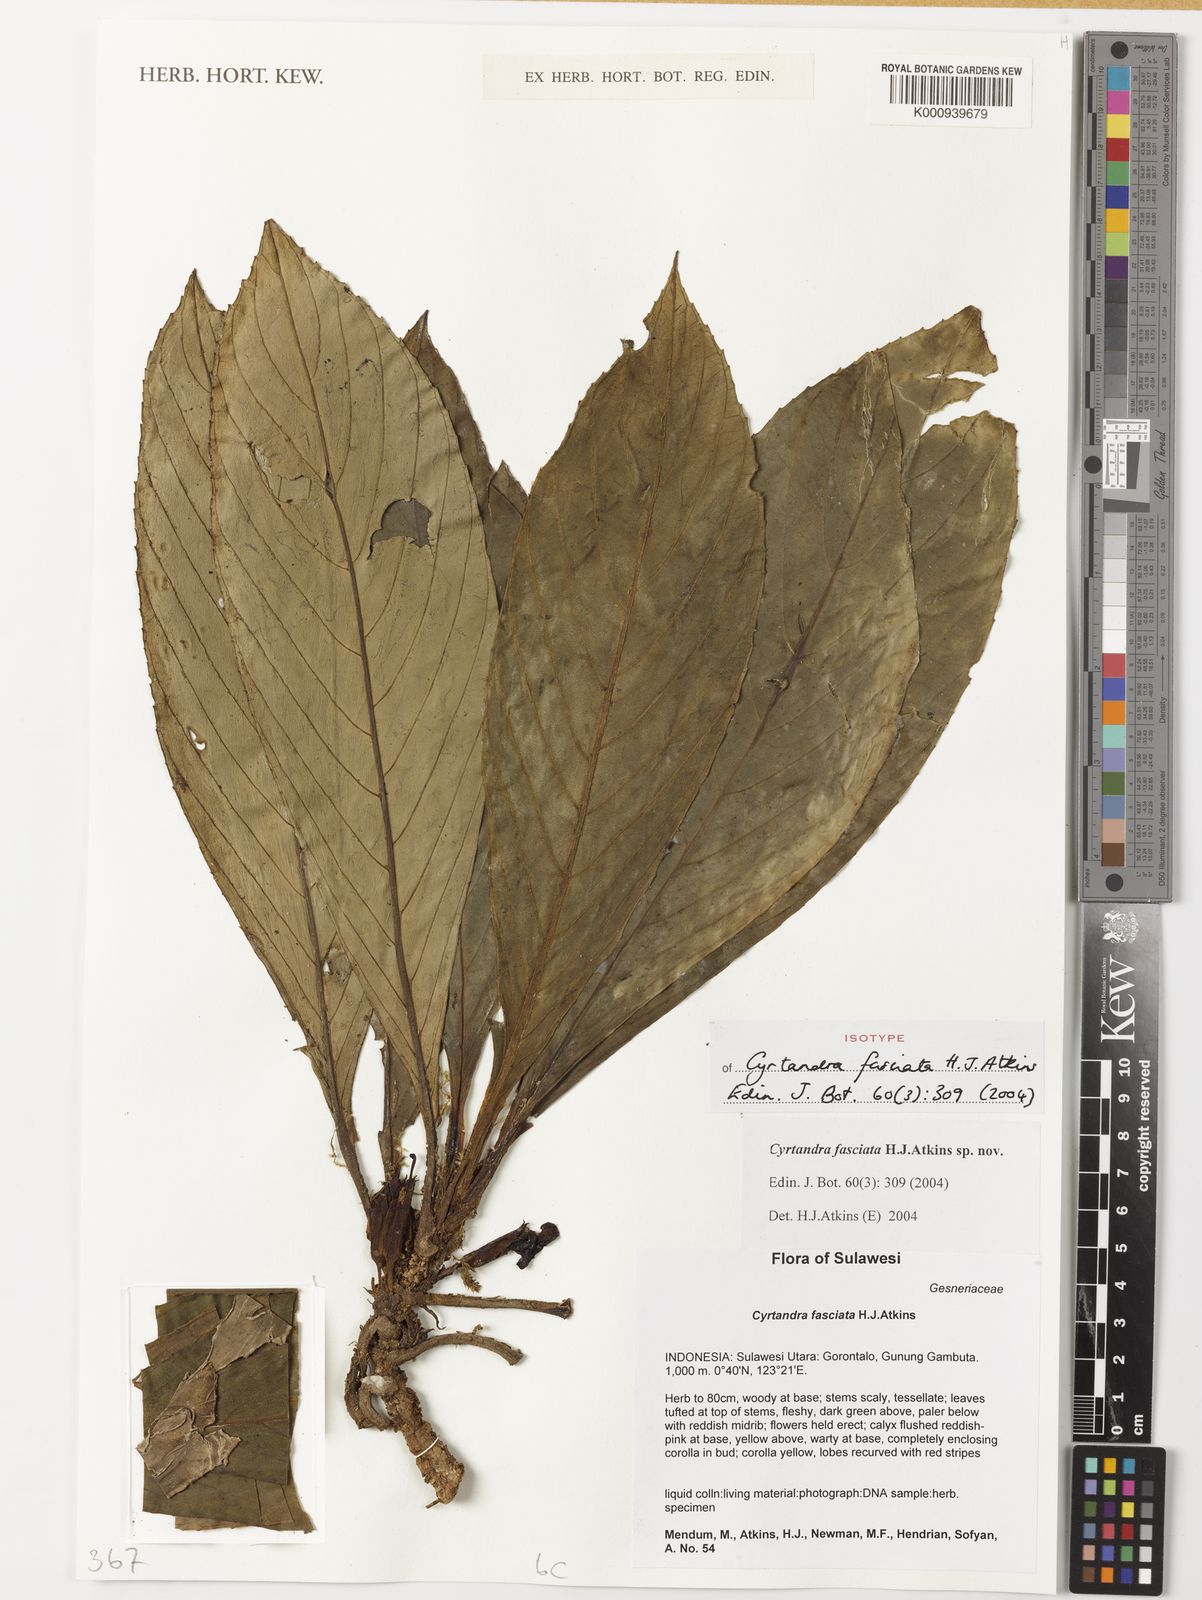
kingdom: Plantae
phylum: Tracheophyta
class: Magnoliopsida
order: Lamiales
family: Gesneriaceae
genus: Cyrtandra
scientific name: Cyrtandra fasciata
